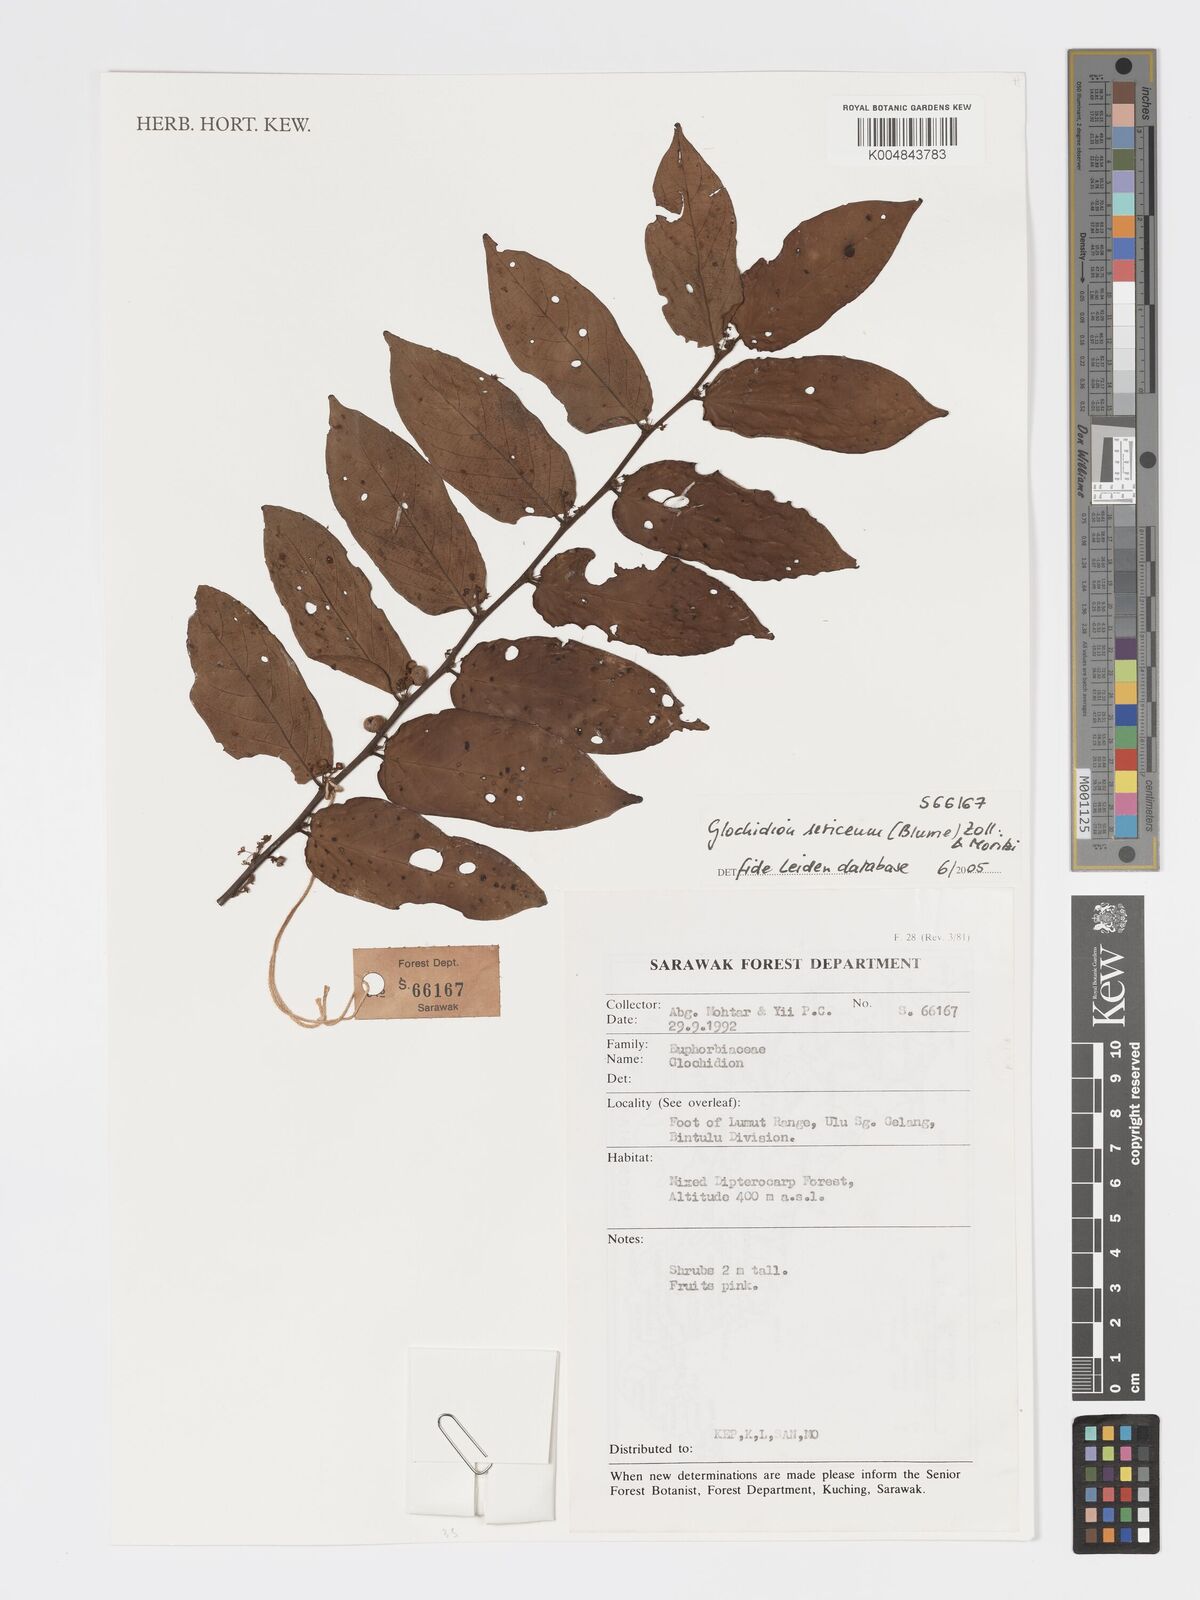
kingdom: Plantae
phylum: Tracheophyta
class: Magnoliopsida
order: Malpighiales
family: Phyllanthaceae
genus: Glochidion
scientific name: Glochidion sericeum
